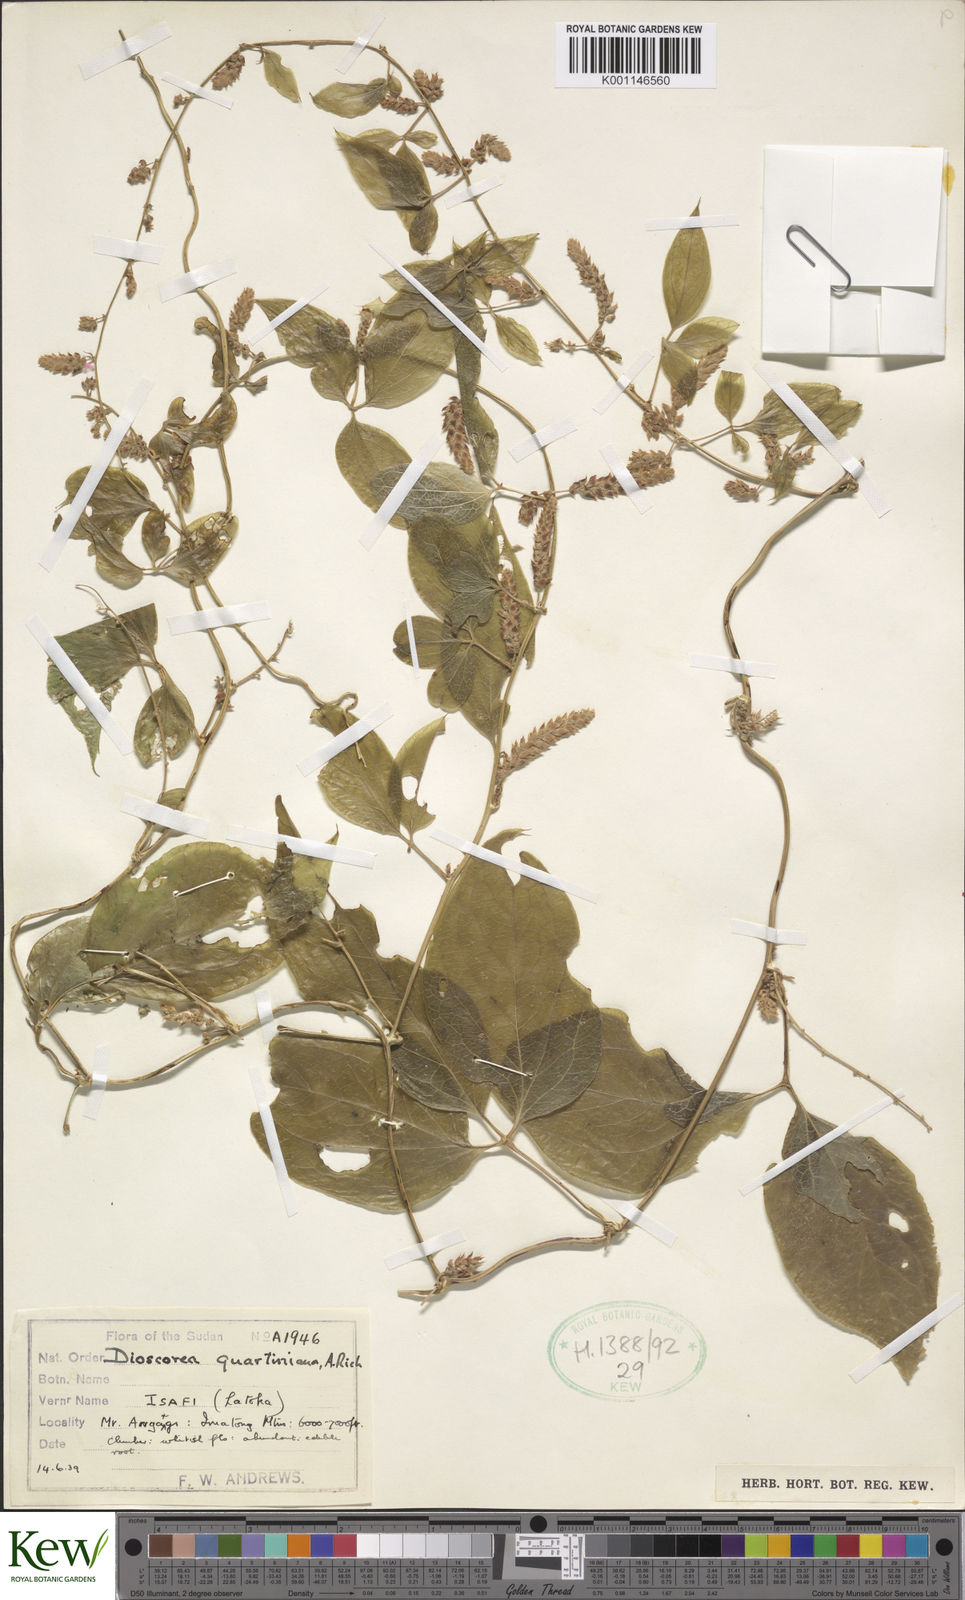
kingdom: Plantae
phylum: Tracheophyta
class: Liliopsida
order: Dioscoreales
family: Dioscoreaceae
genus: Dioscorea
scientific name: Dioscorea quartiniana
